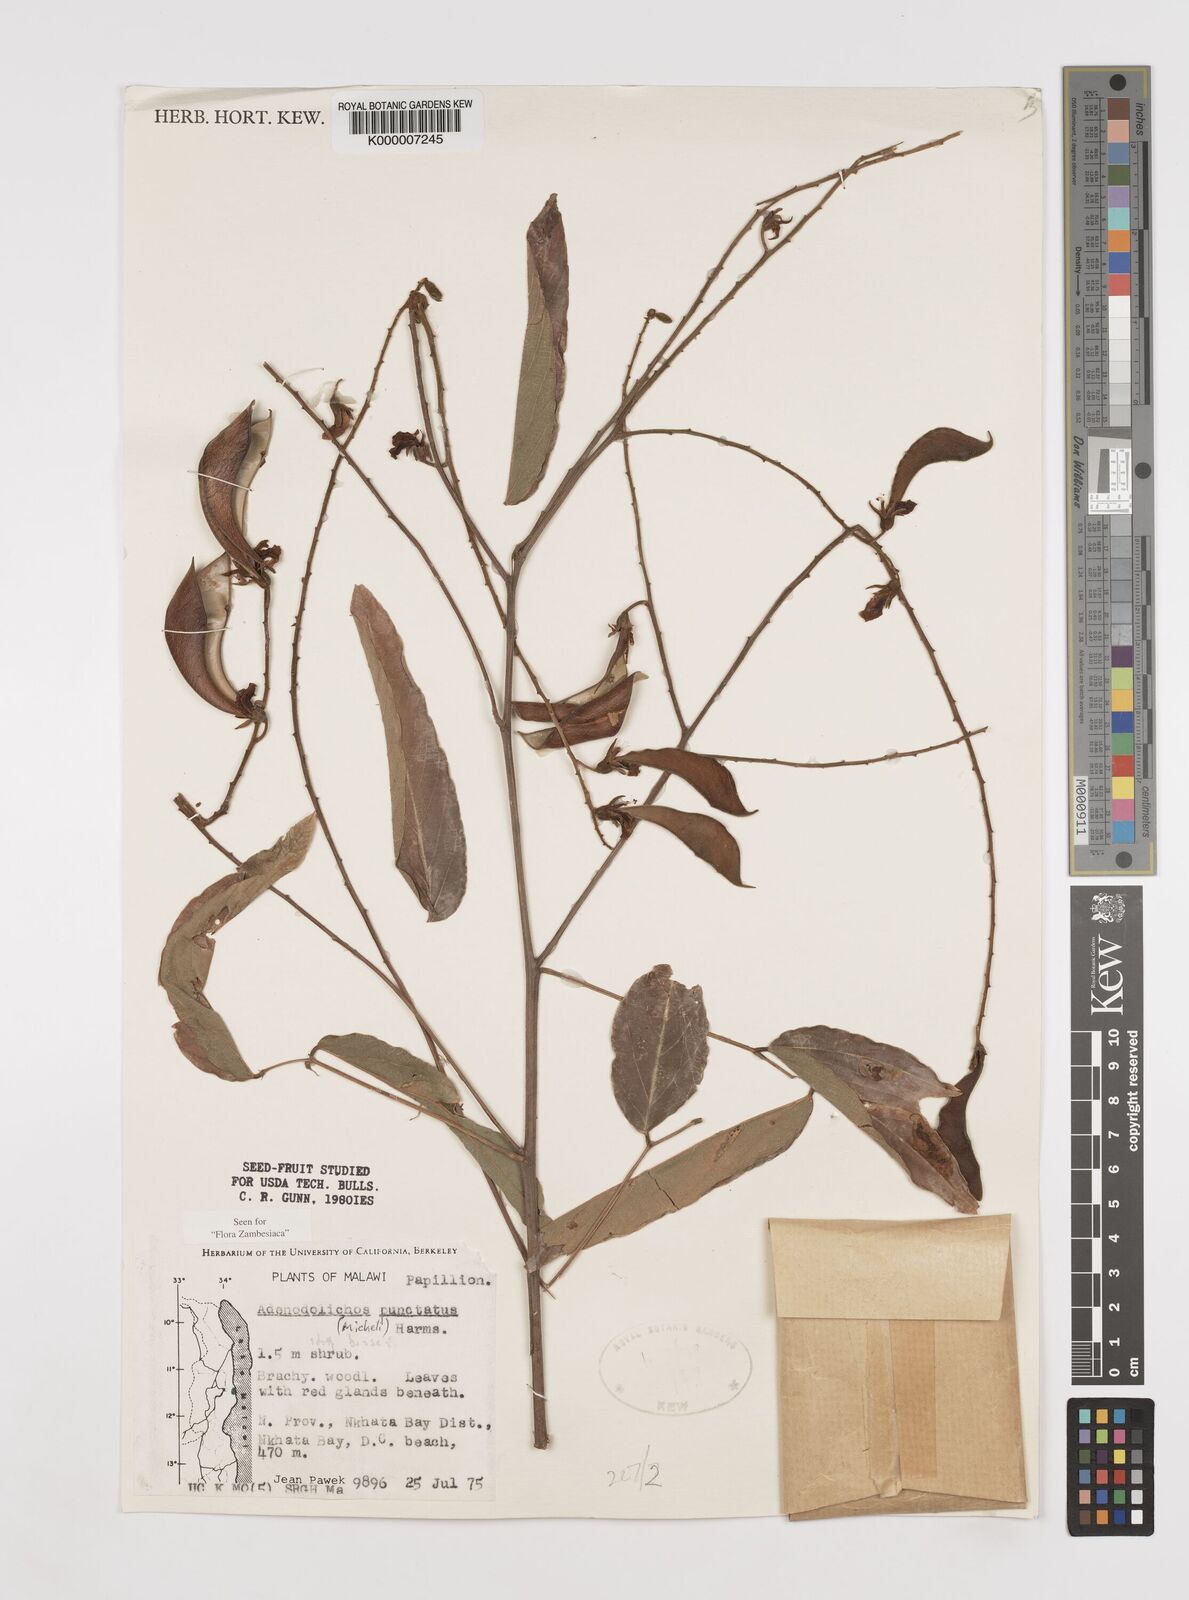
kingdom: Plantae
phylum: Tracheophyta
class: Magnoliopsida
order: Fabales
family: Fabaceae
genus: Adenodolichos
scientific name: Adenodolichos punctatus
